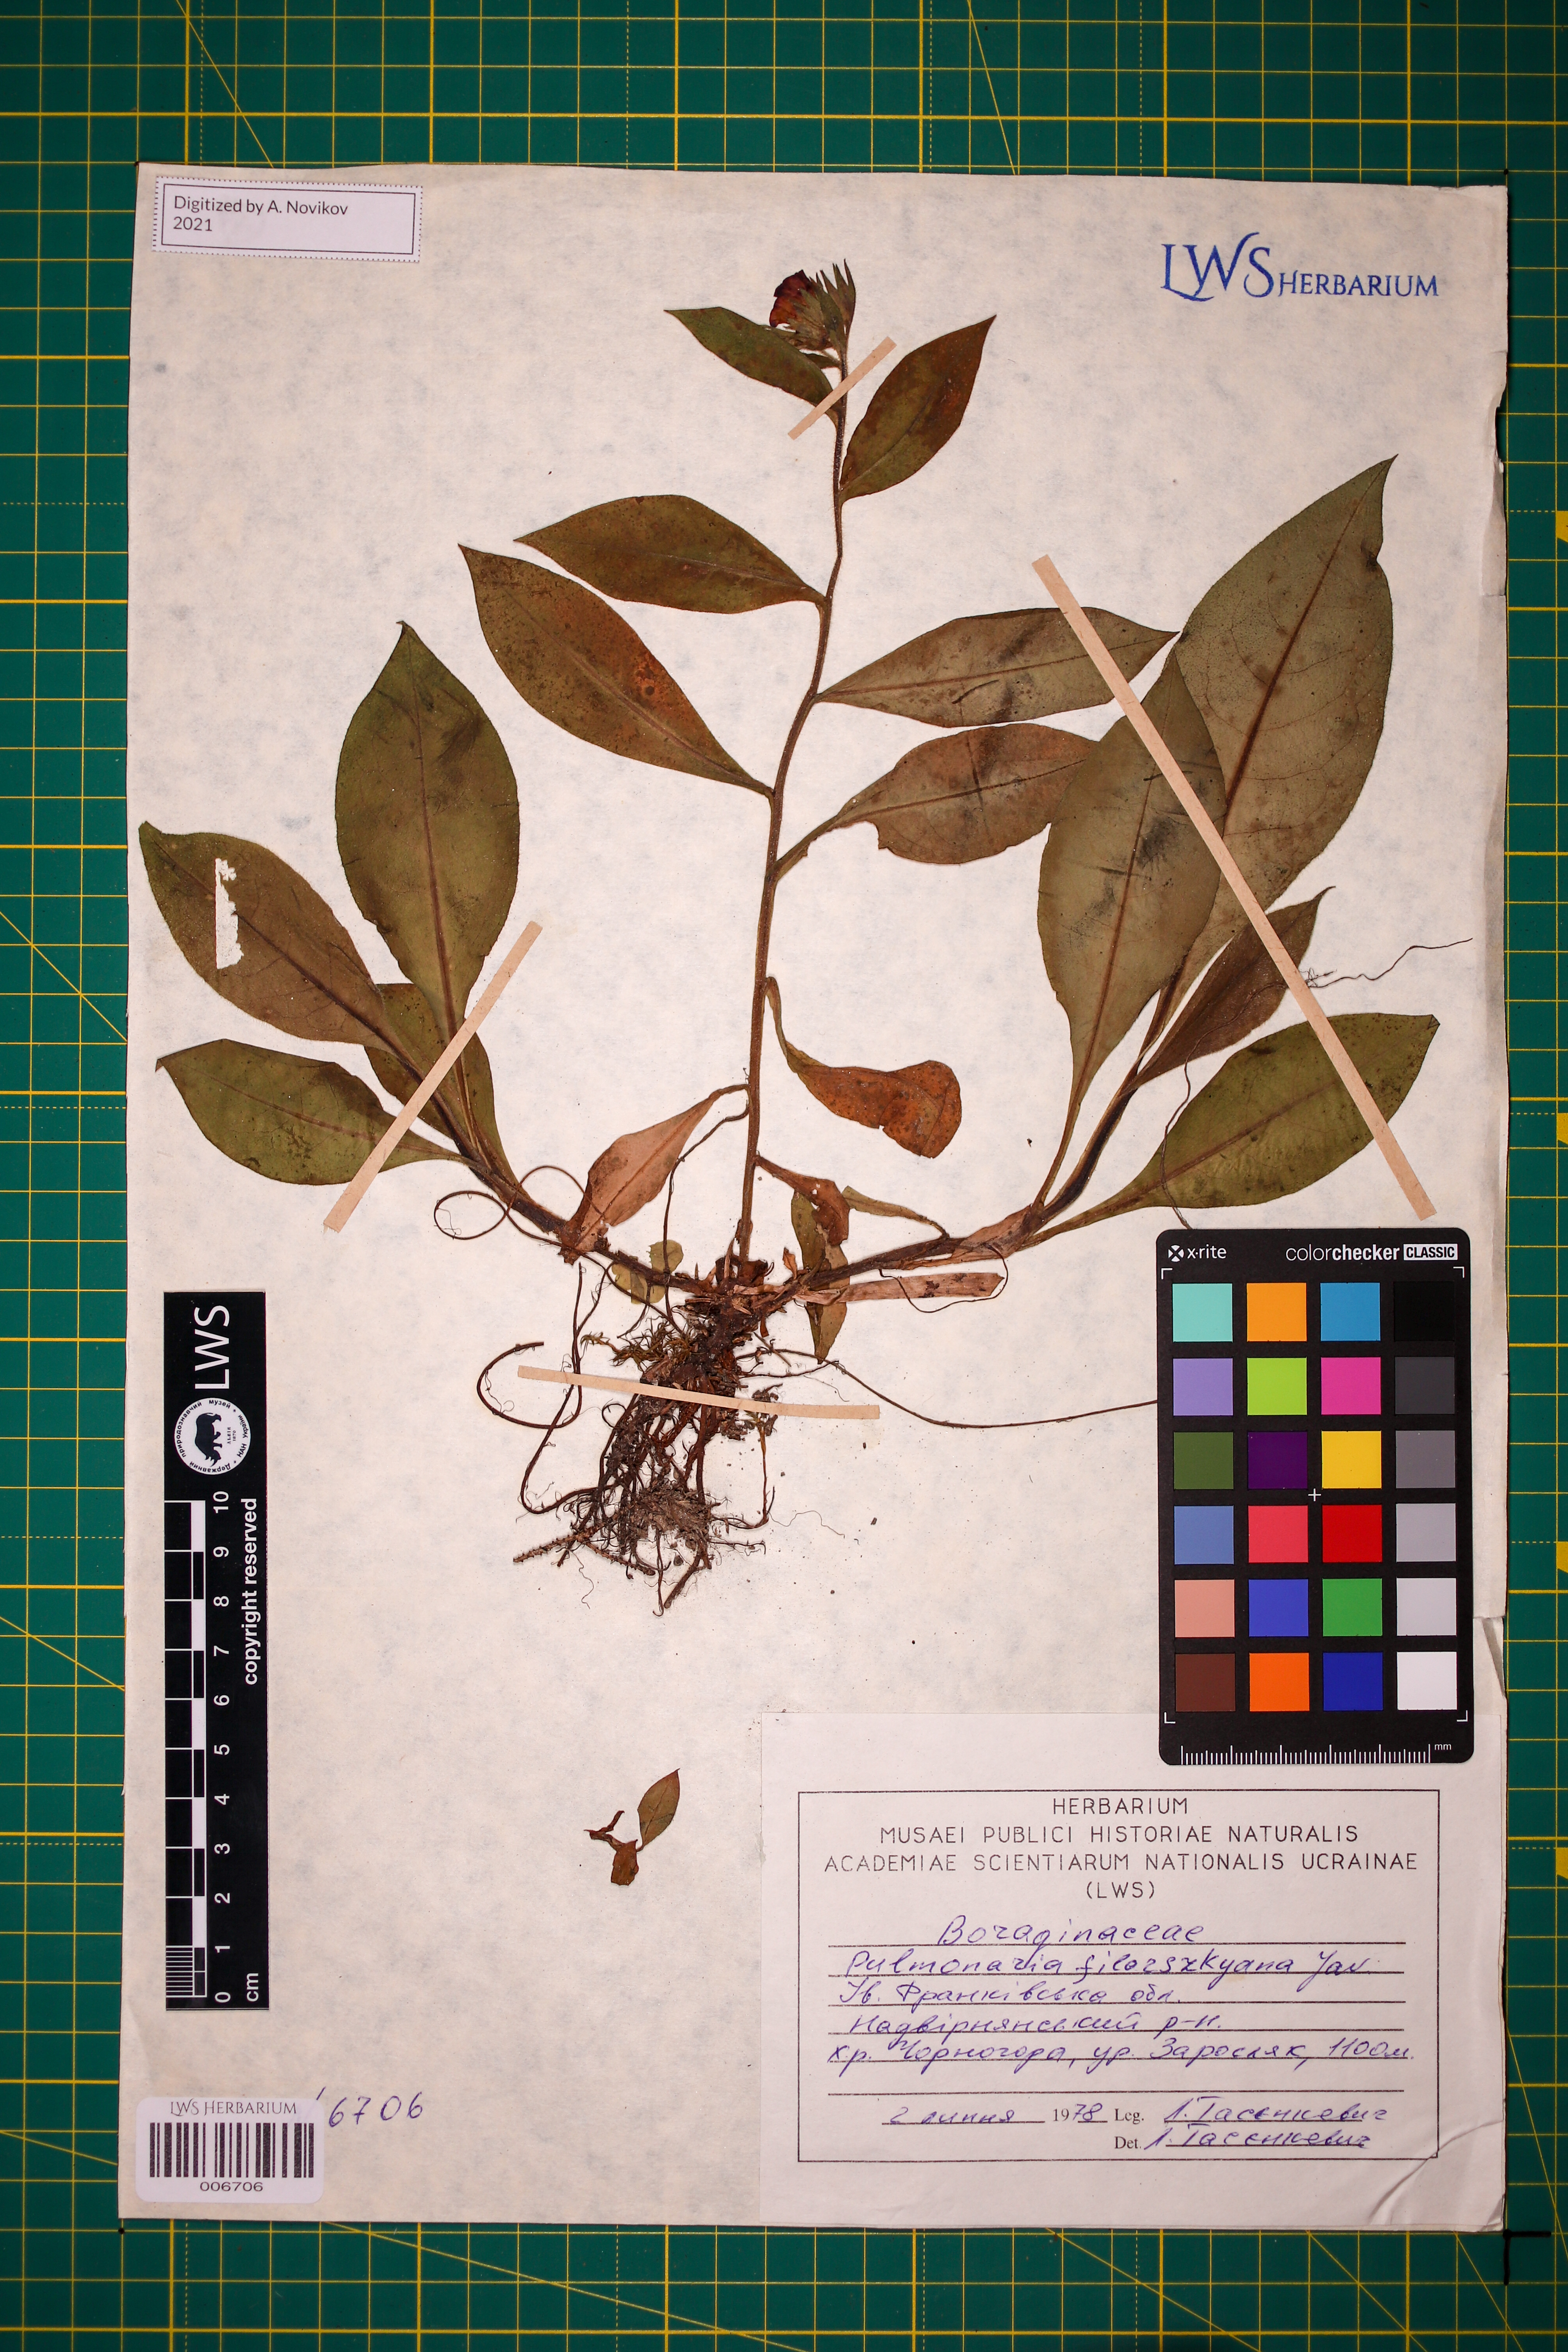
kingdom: Plantae
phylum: Tracheophyta
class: Magnoliopsida
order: Boraginales
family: Boraginaceae
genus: Pulmonaria
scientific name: Pulmonaria filarszkyana
